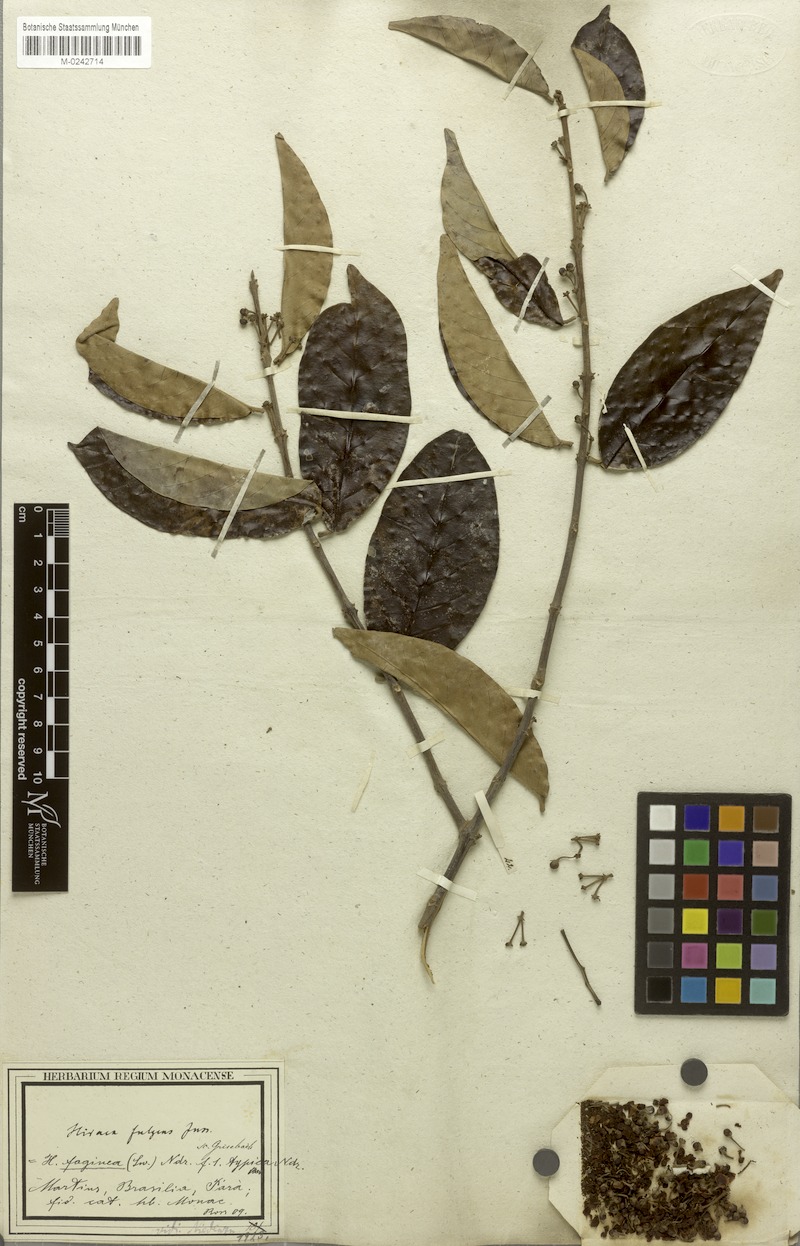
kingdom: Plantae
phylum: Tracheophyta
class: Magnoliopsida
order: Malpighiales
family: Malpighiaceae
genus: Hiraea
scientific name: Hiraea faginea
